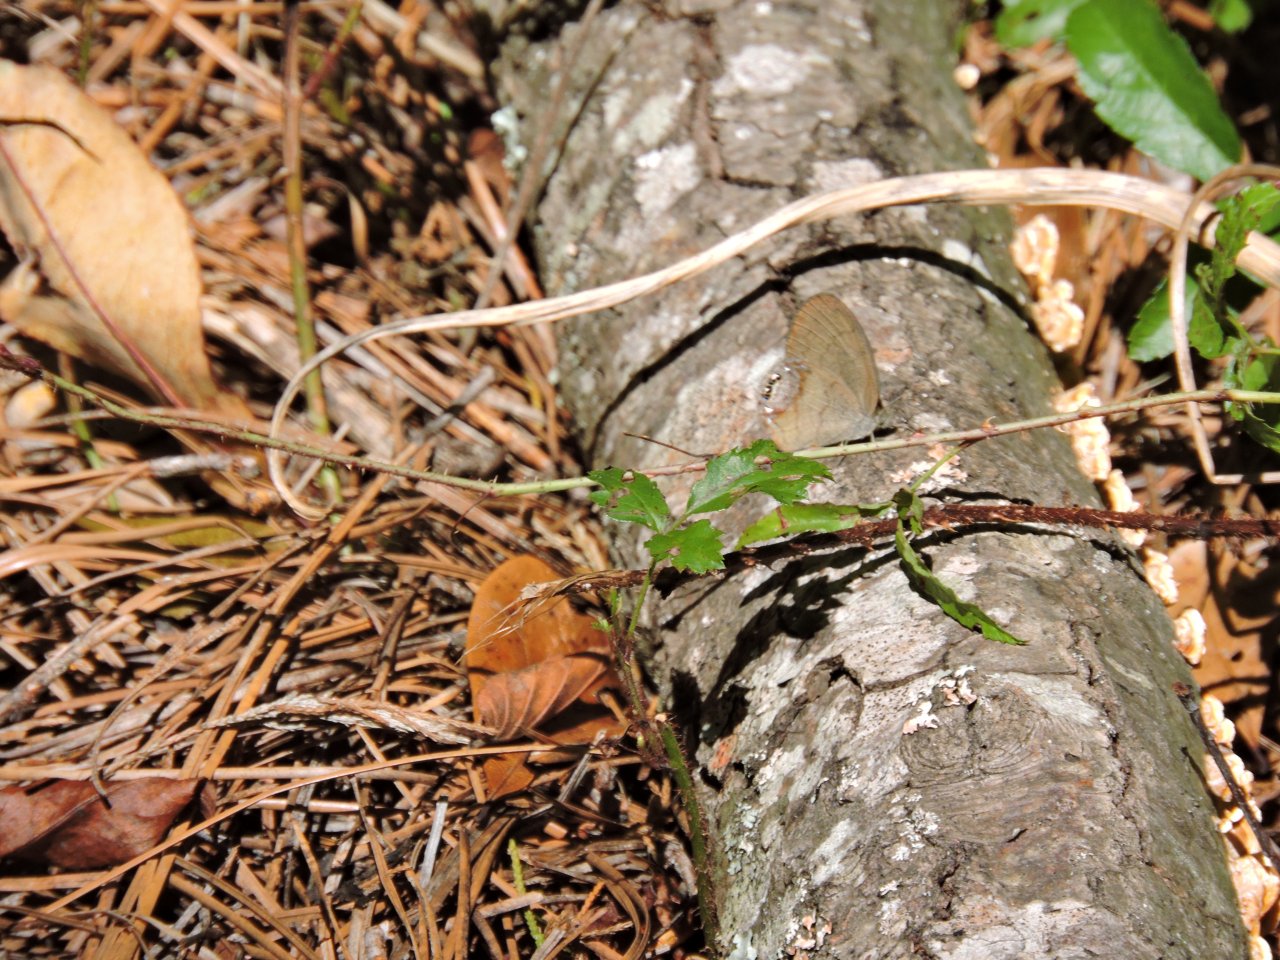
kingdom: Animalia
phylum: Arthropoda
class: Insecta
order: Lepidoptera
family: Nymphalidae
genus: Euptychia
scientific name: Euptychia cornelius
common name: Gemmed Satyr
